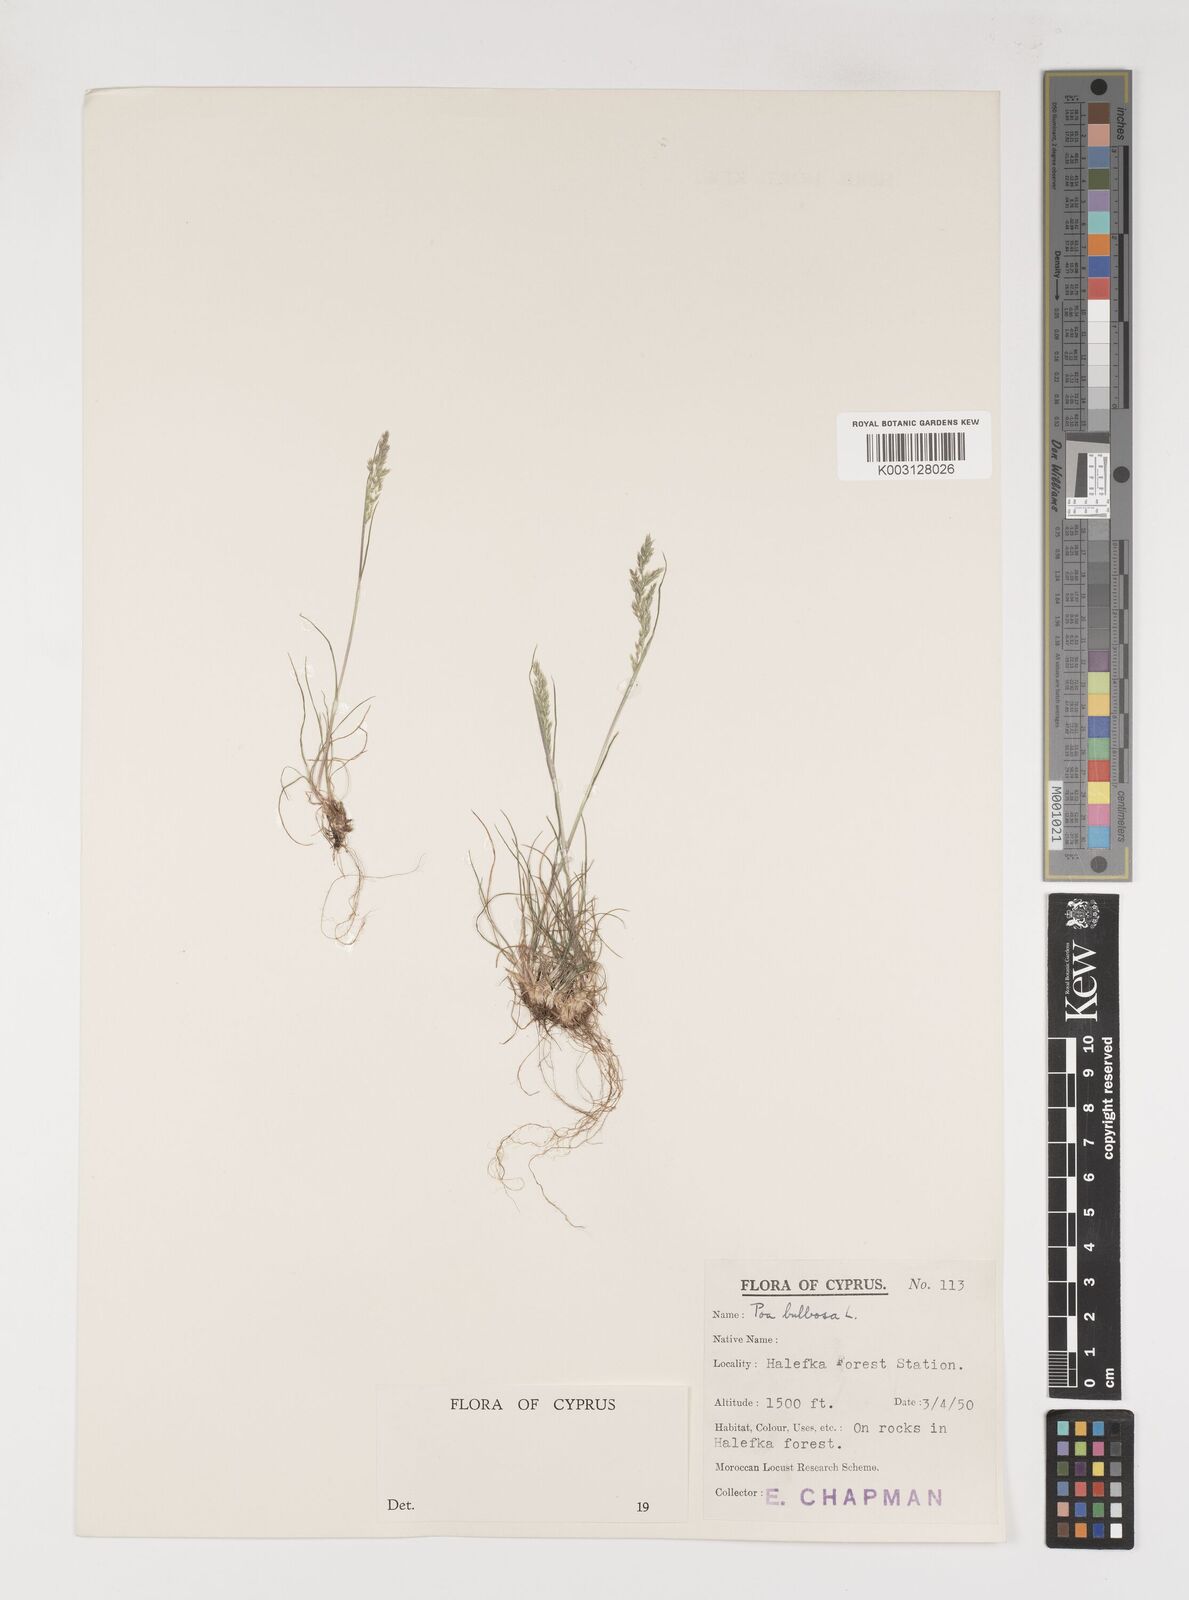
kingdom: Plantae
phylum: Tracheophyta
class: Liliopsida
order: Poales
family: Poaceae
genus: Poa
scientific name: Poa bulbosa
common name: Bulbous bluegrass
